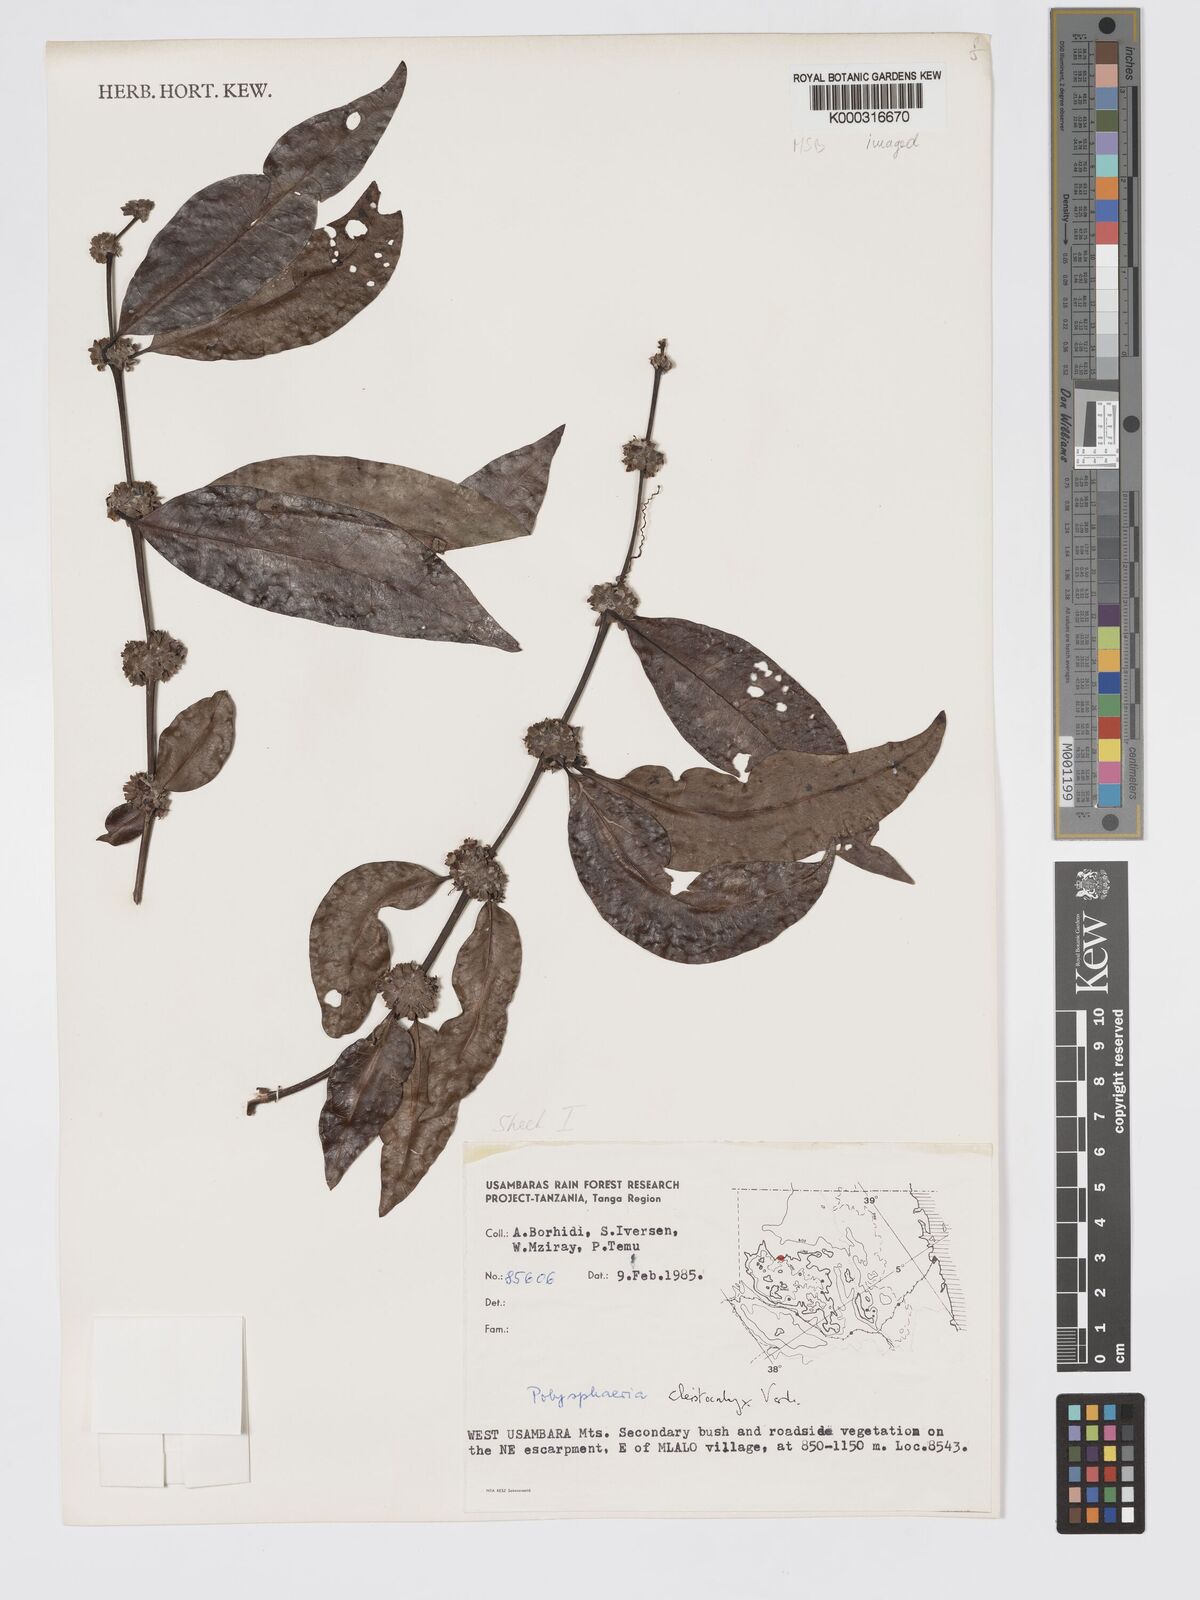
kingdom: Plantae
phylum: Tracheophyta
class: Magnoliopsida
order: Gentianales
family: Rubiaceae
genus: Polysphaeria
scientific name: Polysphaeria cleistocalyx
